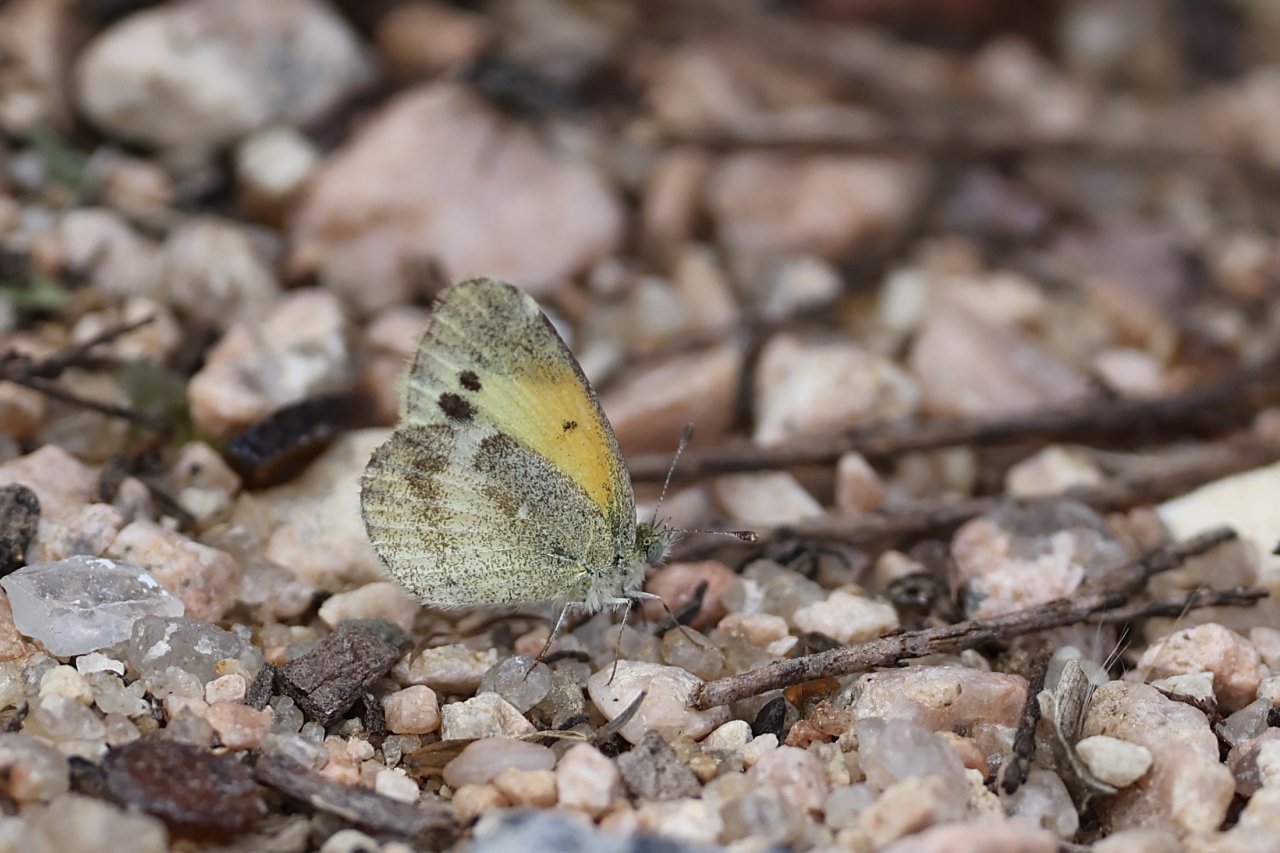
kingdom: Animalia
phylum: Arthropoda
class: Insecta
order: Lepidoptera
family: Pieridae
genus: Nathalis
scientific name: Nathalis iole
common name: Dainty Sulphur
